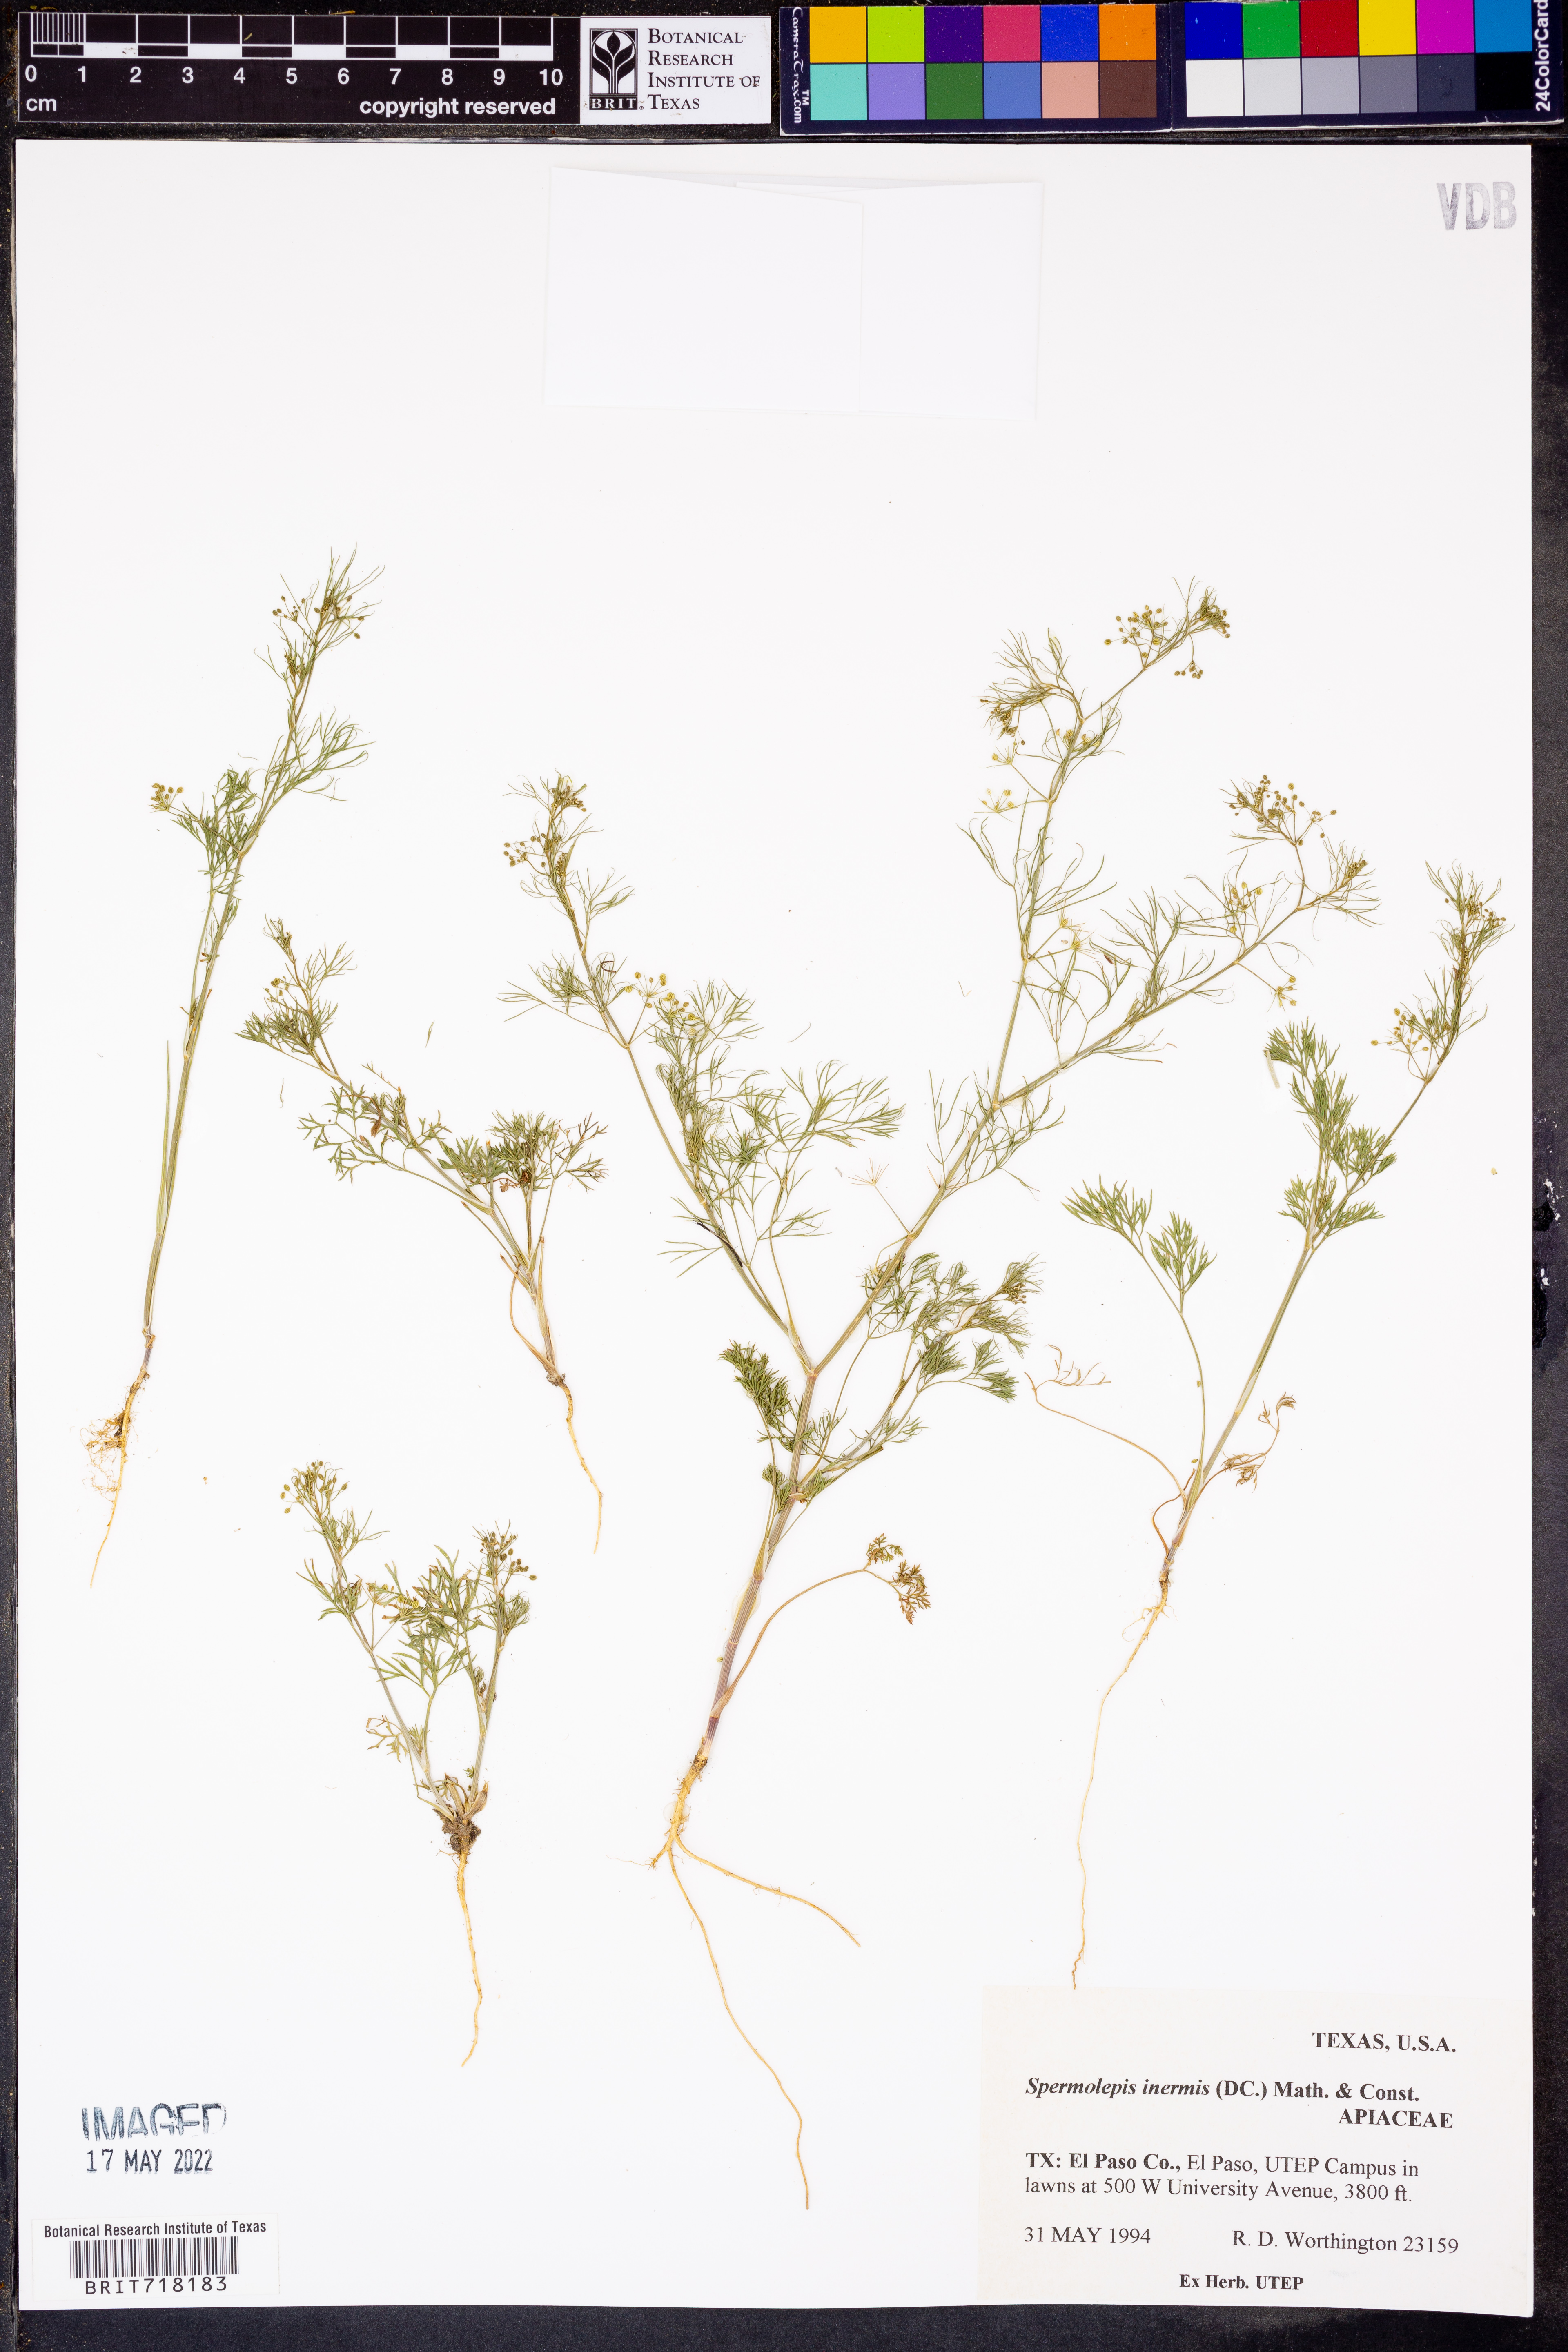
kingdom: Plantae
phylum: Tracheophyta
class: Magnoliopsida
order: Apiales
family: Apiaceae
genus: Spermolepis
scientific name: Spermolepis inermis
